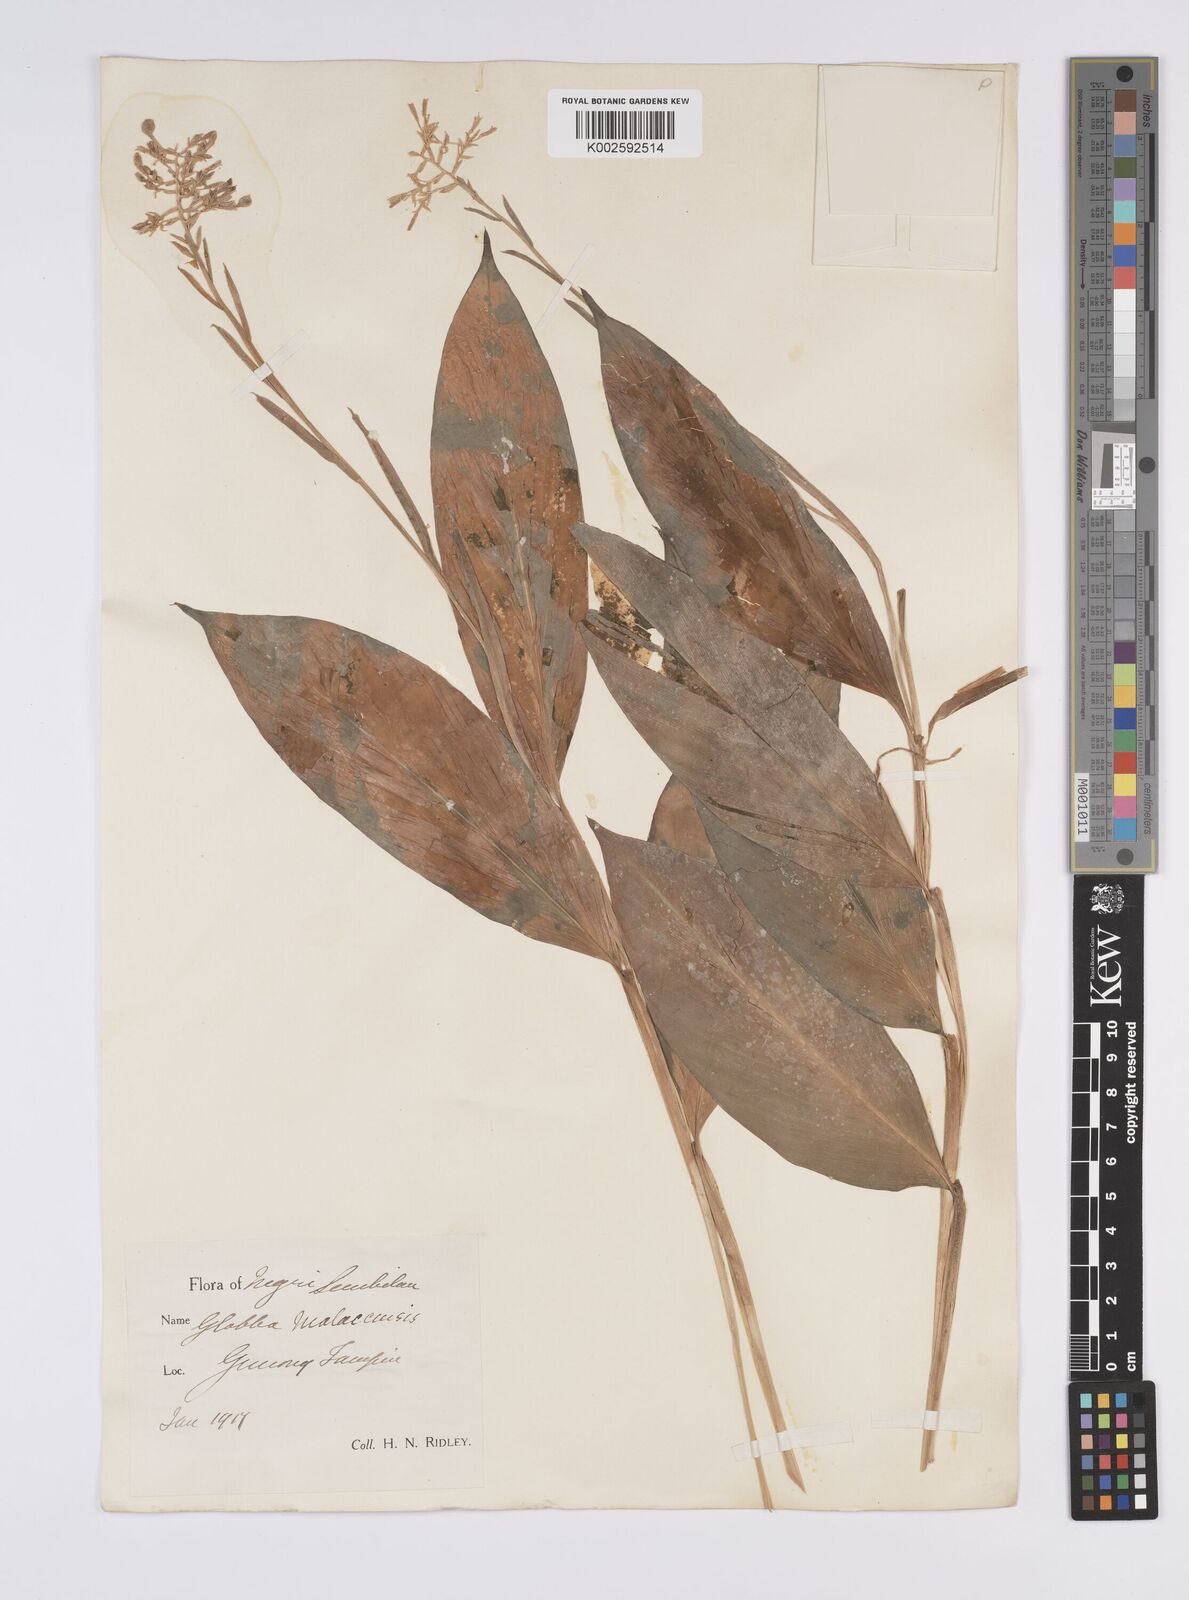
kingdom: Plantae
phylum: Tracheophyta
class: Liliopsida
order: Zingiberales
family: Zingiberaceae
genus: Globba
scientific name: Globba aurantiaca
